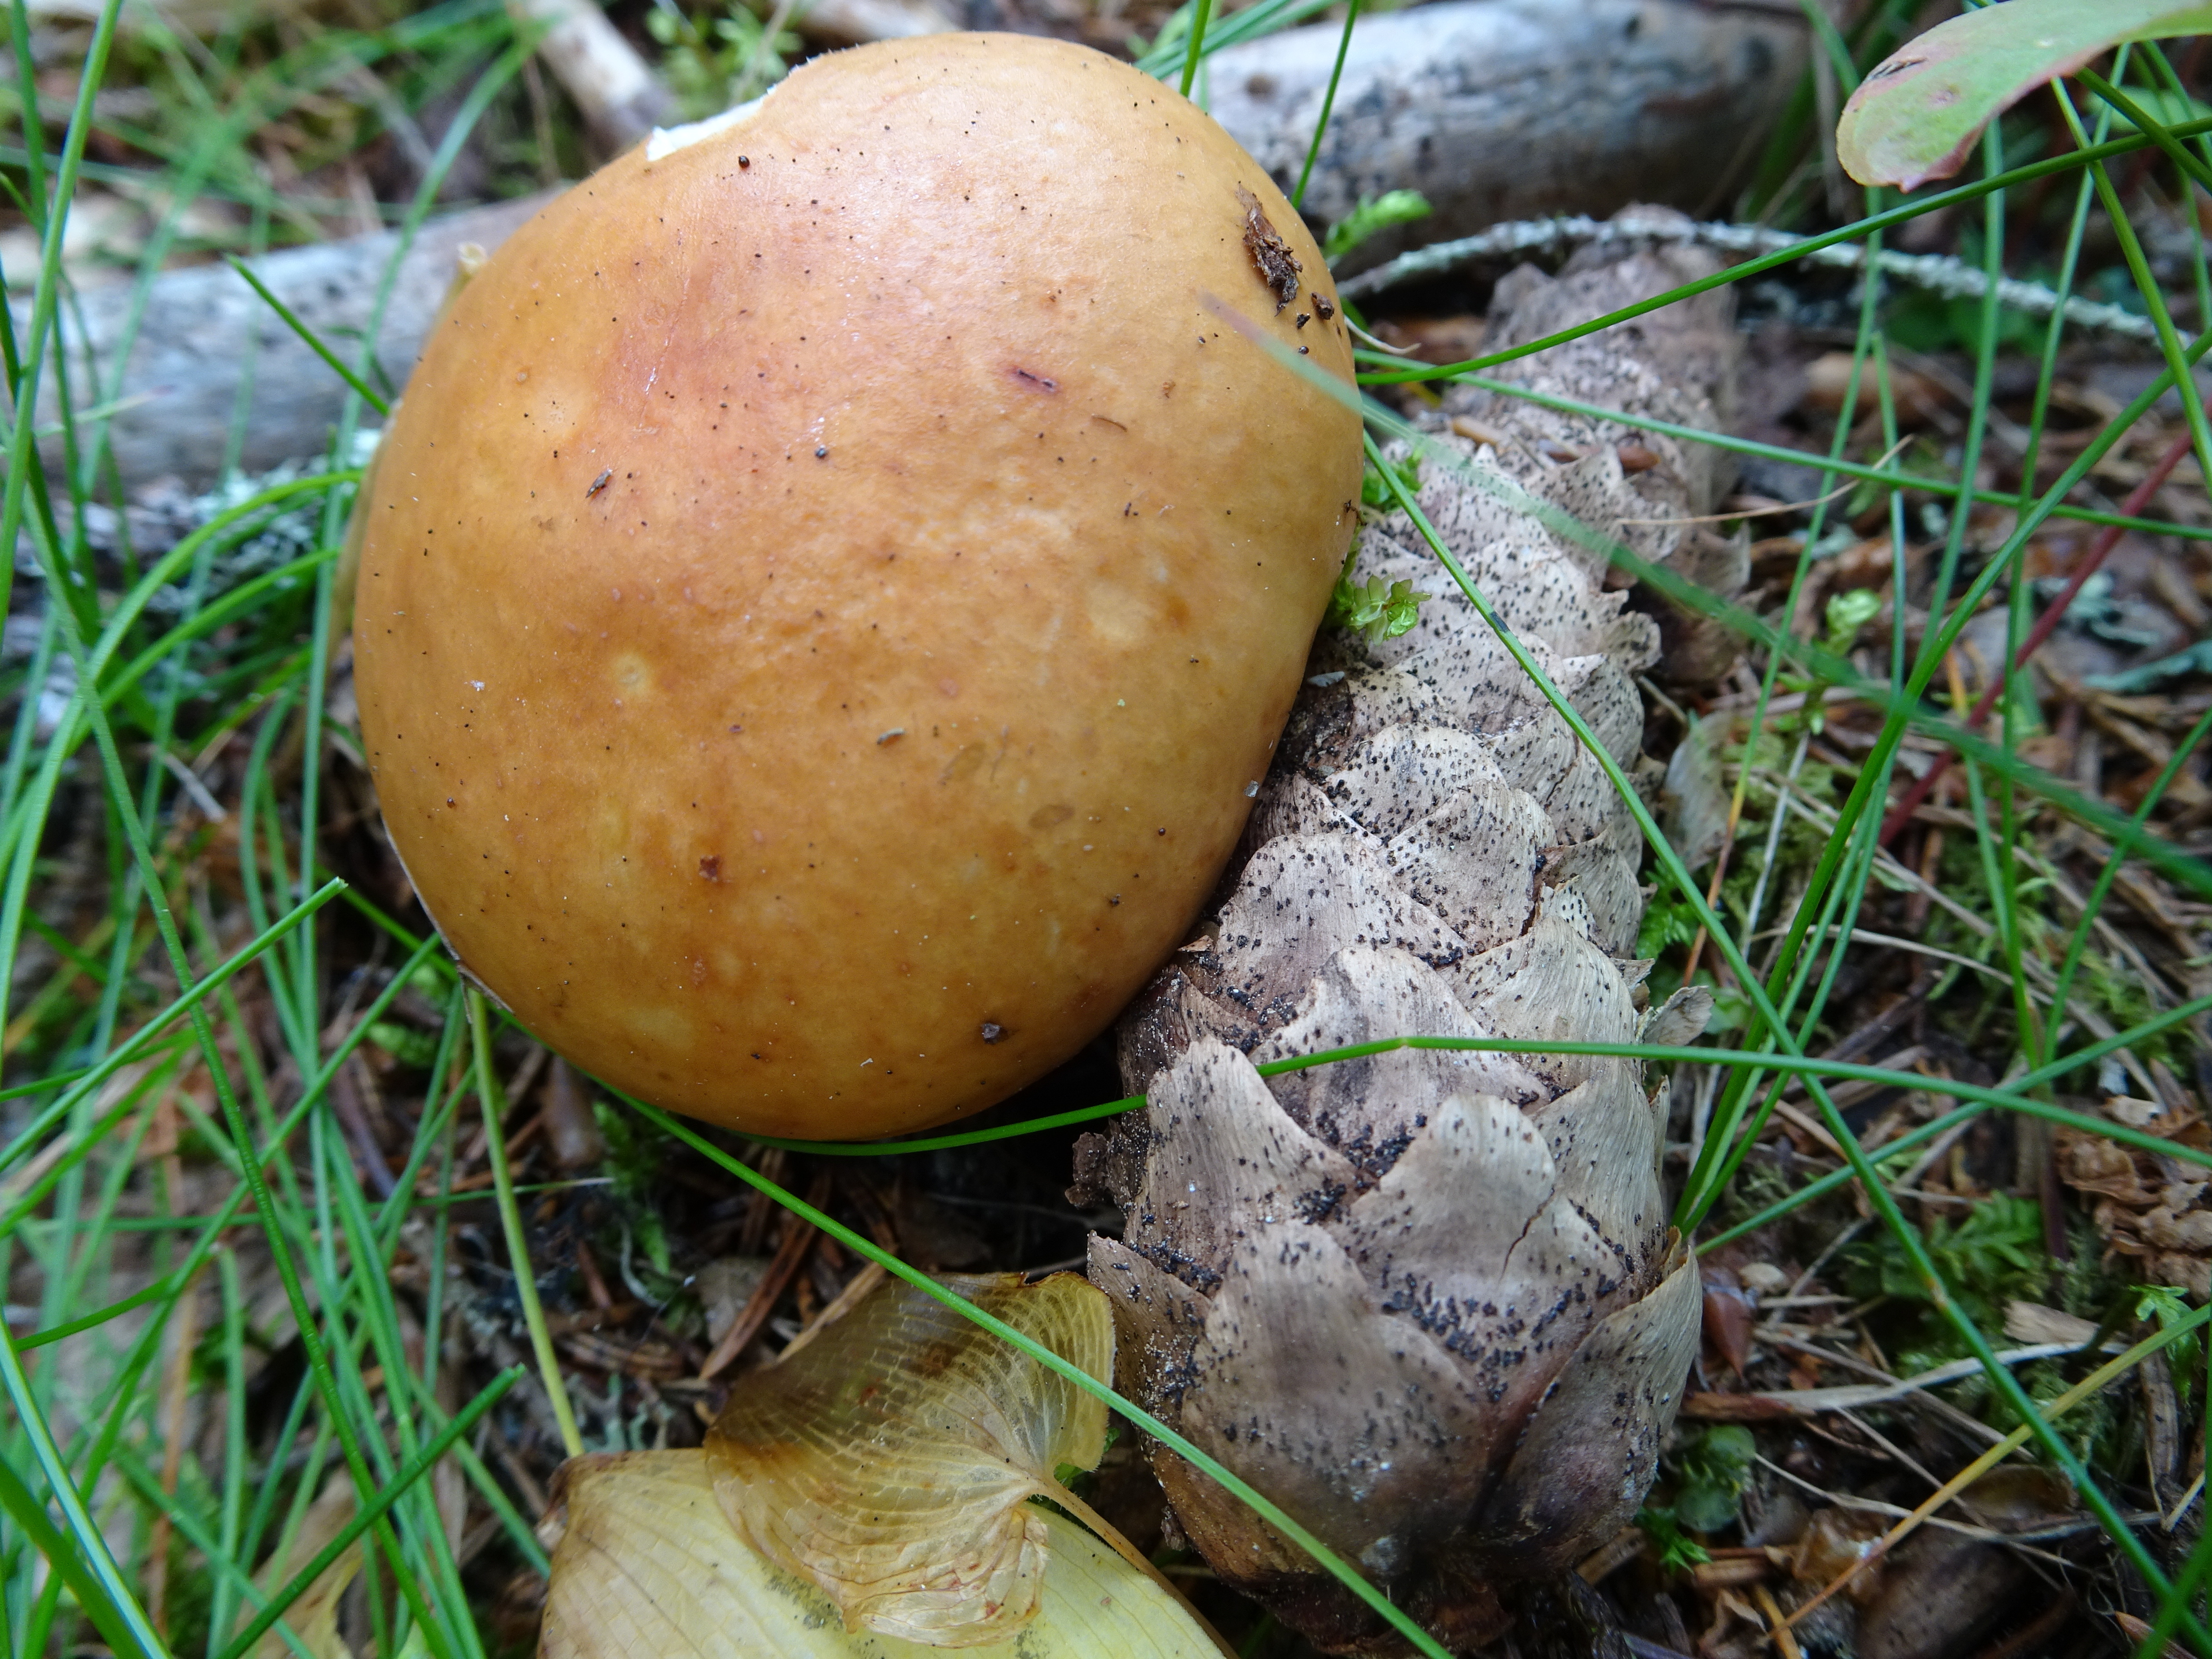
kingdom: Fungi
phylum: Basidiomycota
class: Agaricomycetes
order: Russulales
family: Russulaceae
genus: Russula
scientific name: Russula decolorans
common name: Copper brittlegill
